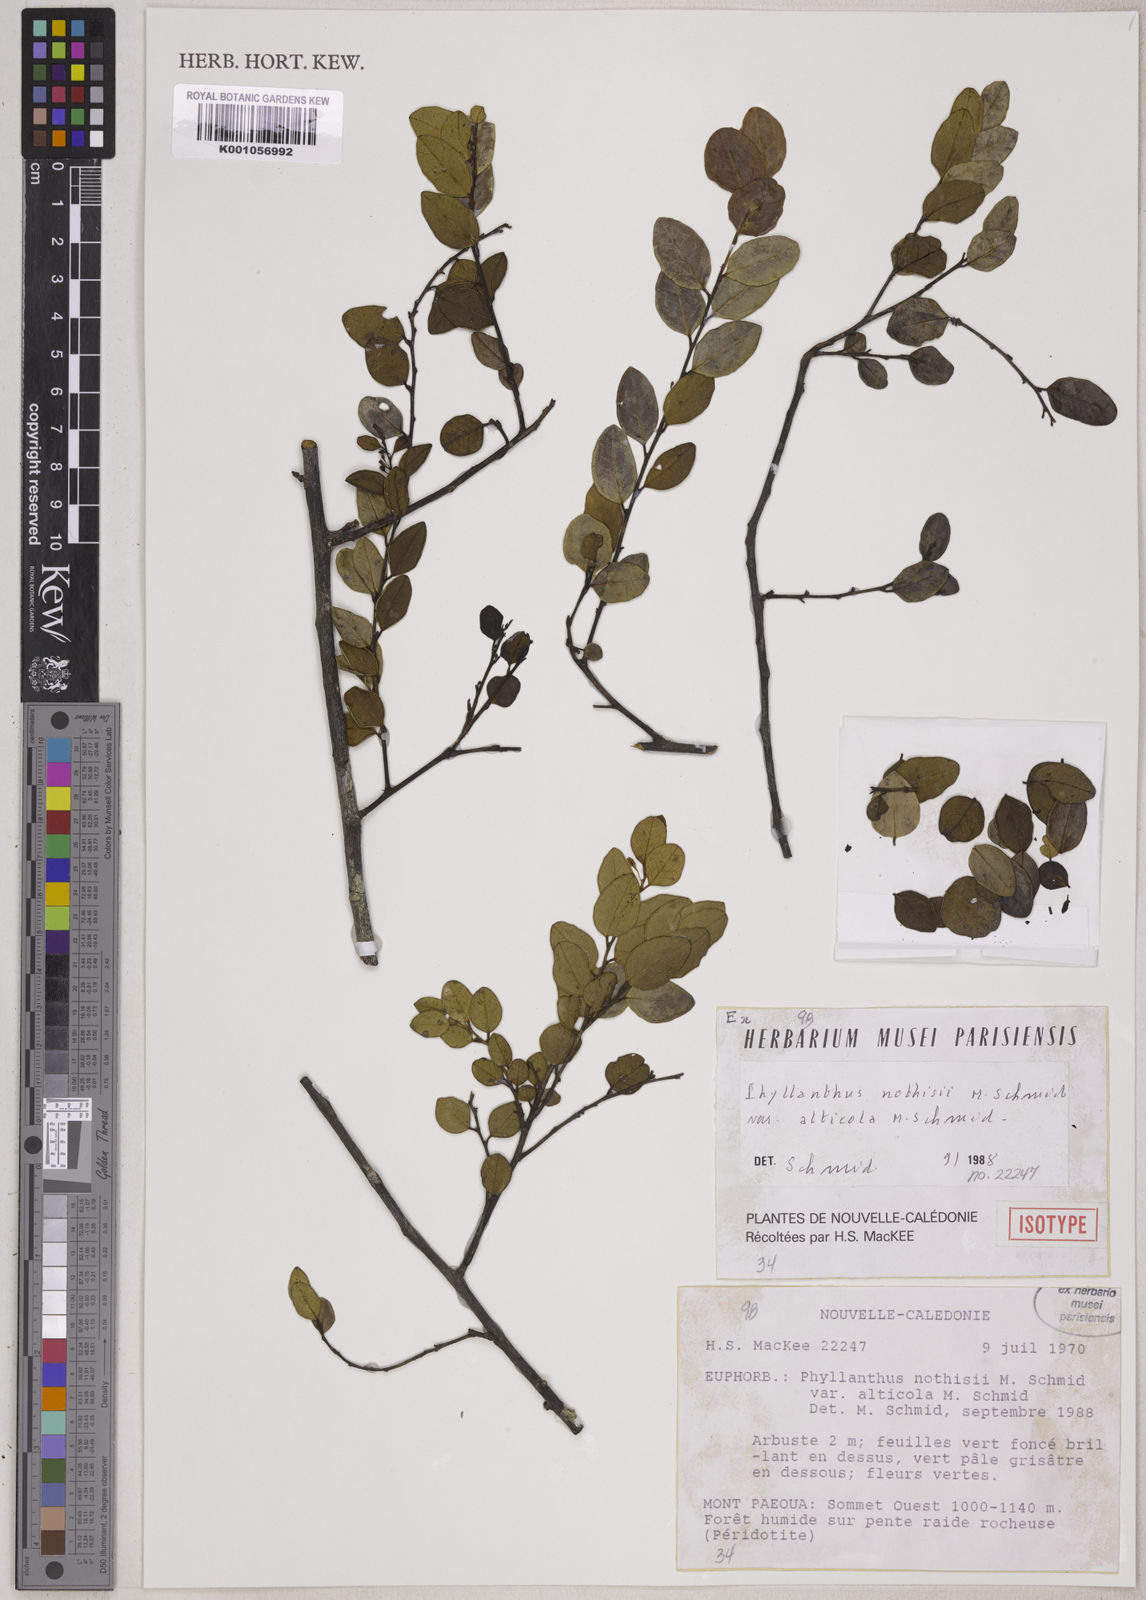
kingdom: Plantae
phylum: Tracheophyta
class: Magnoliopsida
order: Malpighiales
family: Phyllanthaceae
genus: Phyllanthus
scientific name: Phyllanthus nothisii
